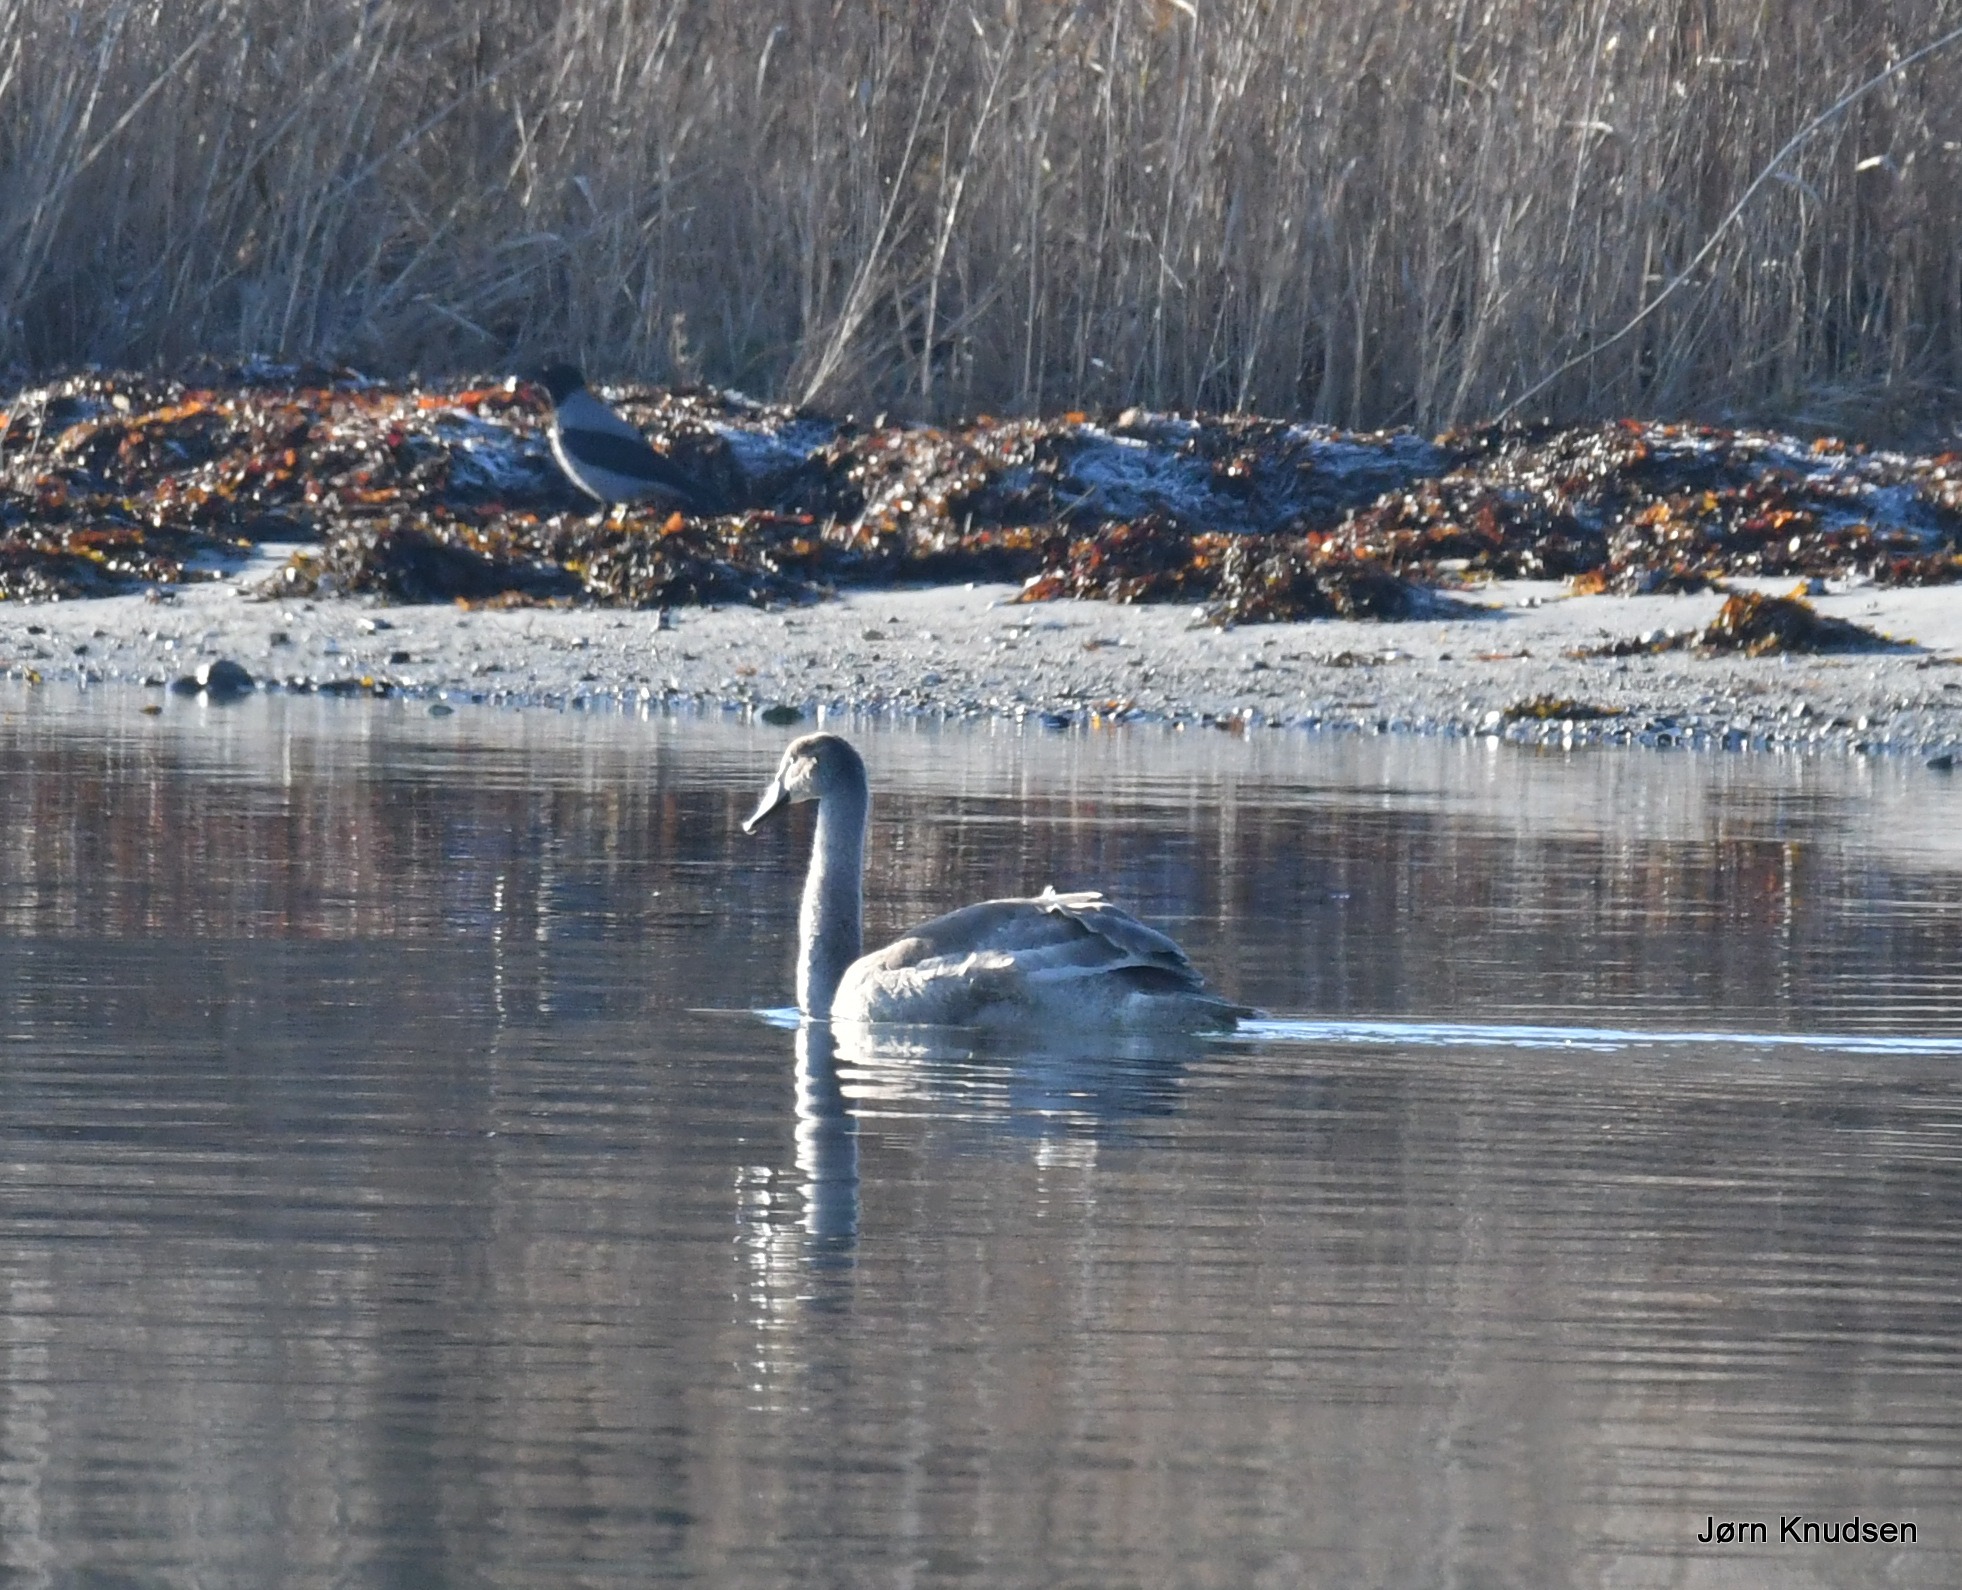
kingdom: Animalia
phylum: Chordata
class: Aves
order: Anseriformes
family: Anatidae
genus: Cygnus
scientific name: Cygnus olor
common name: Knopsvane
